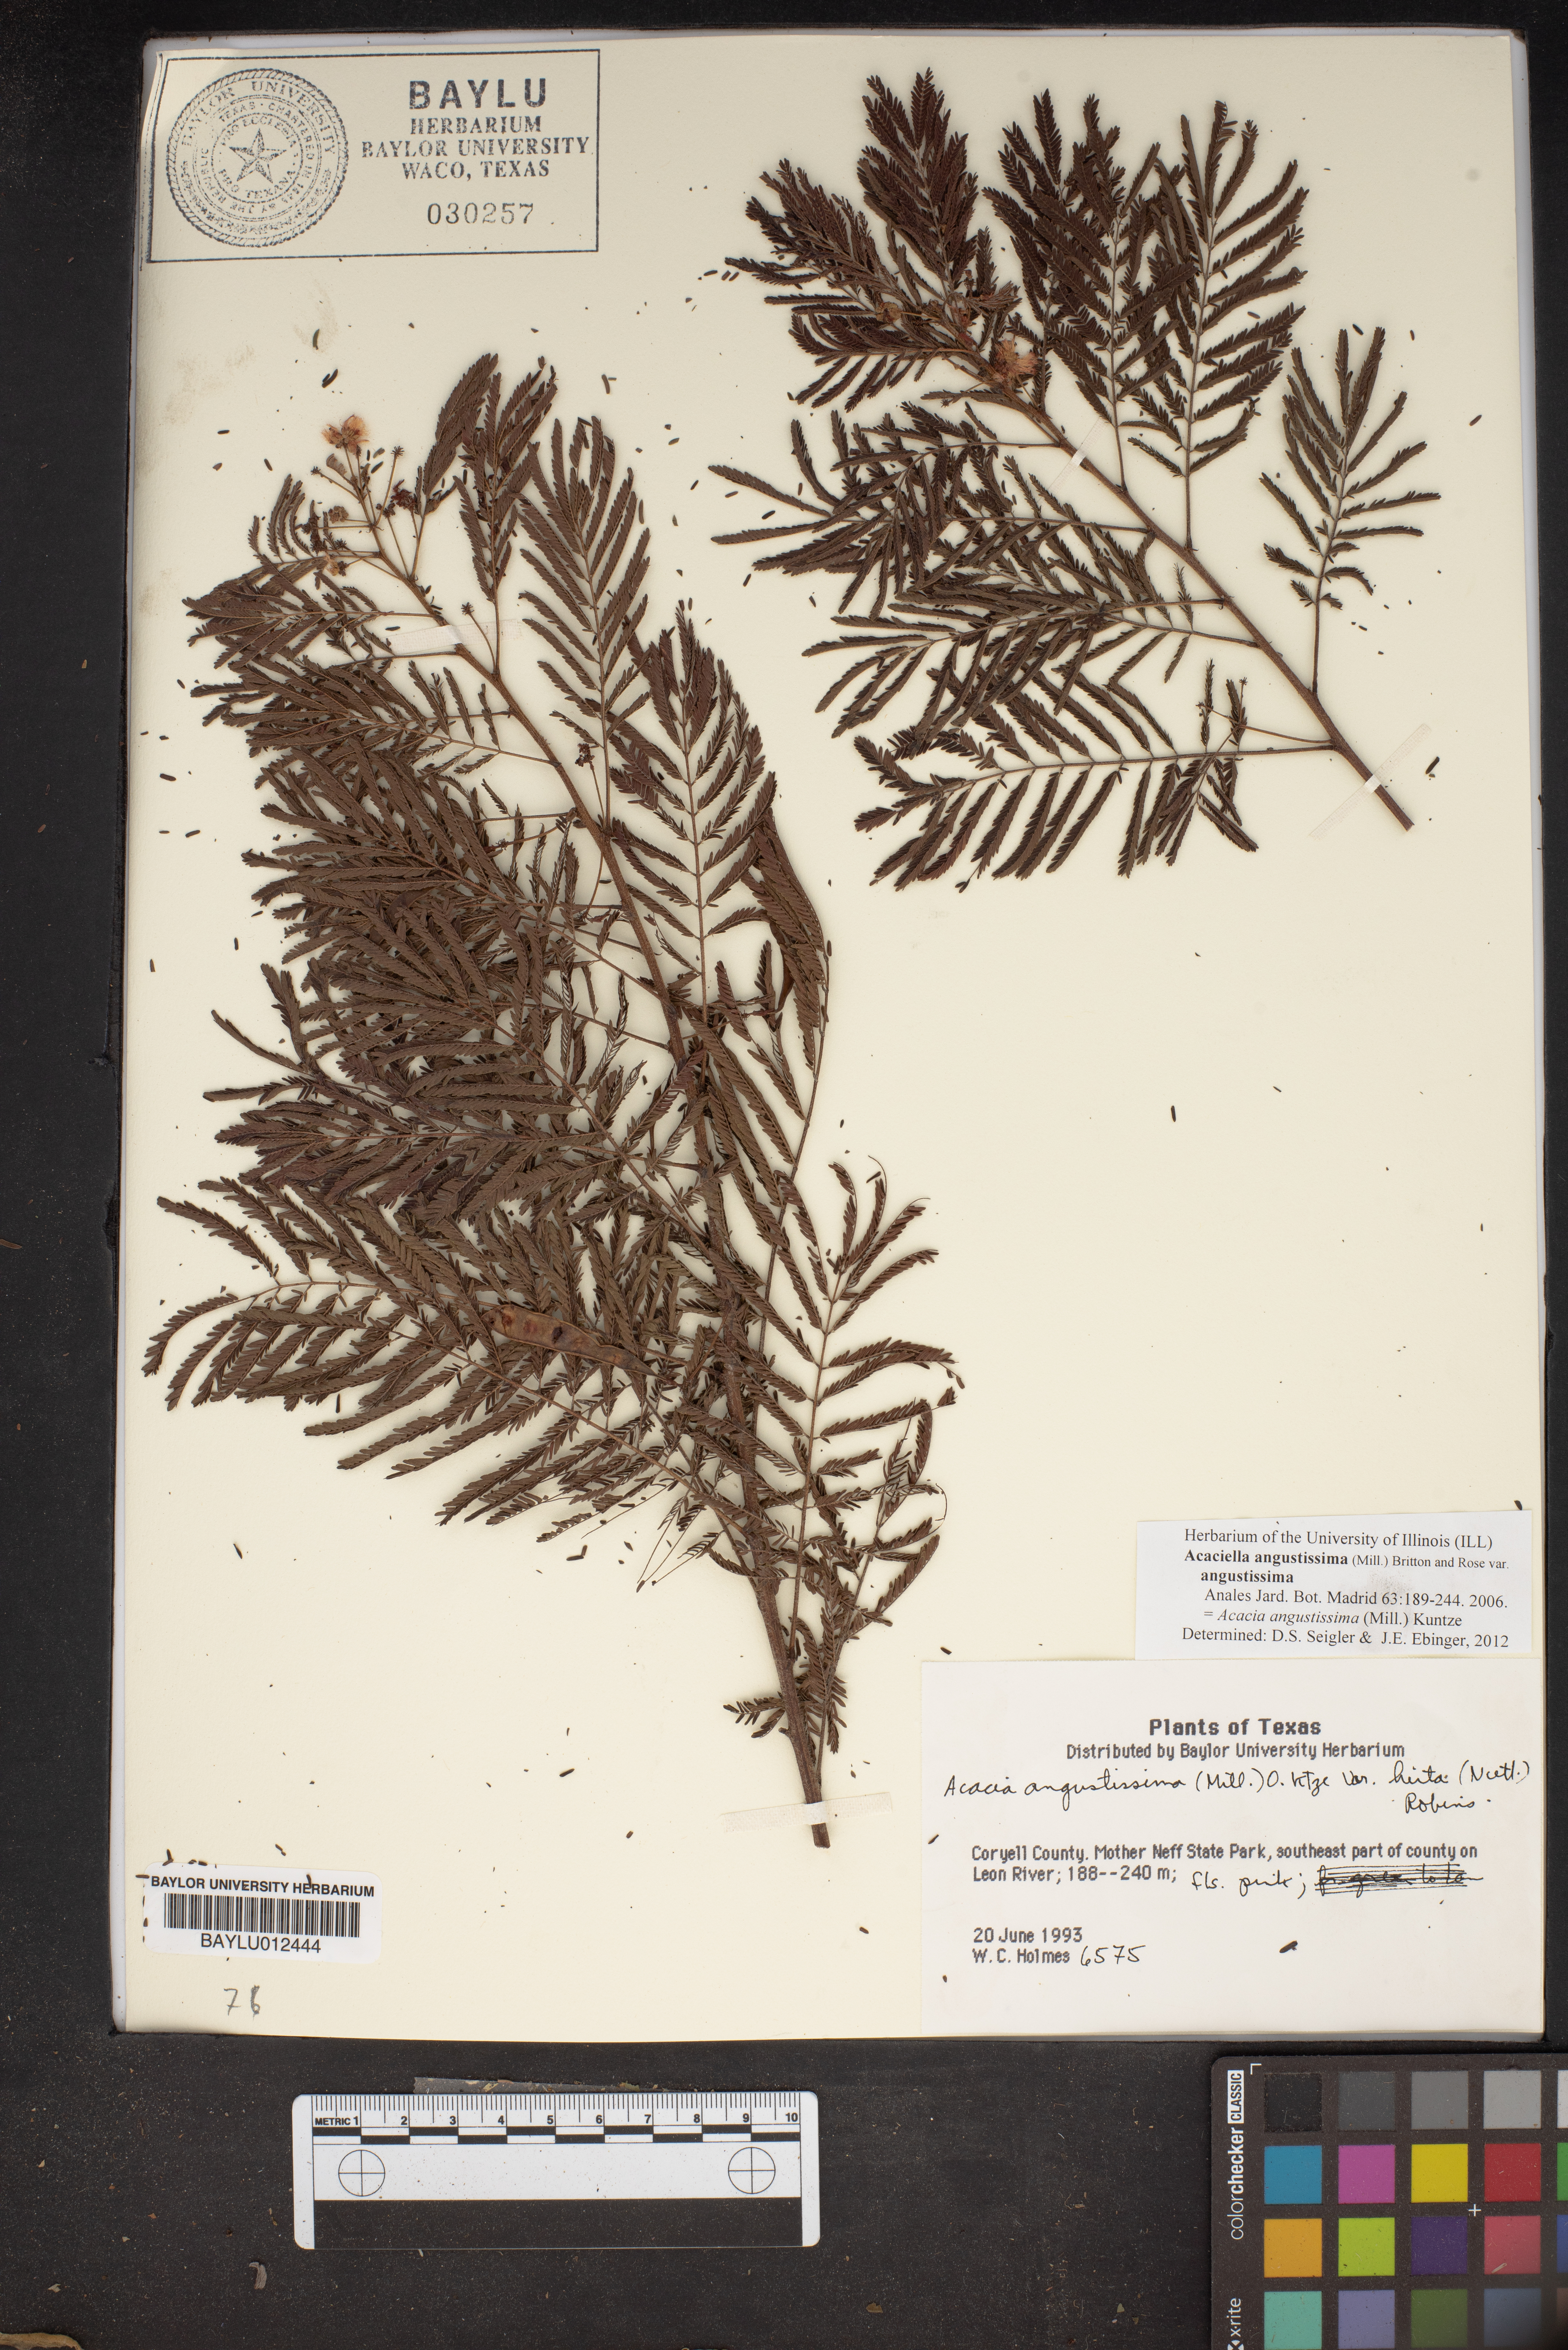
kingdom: Plantae
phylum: Tracheophyta
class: Magnoliopsida
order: Fabales
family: Fabaceae
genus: Acaciella
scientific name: Acaciella angustissima
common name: Prairie acacia
